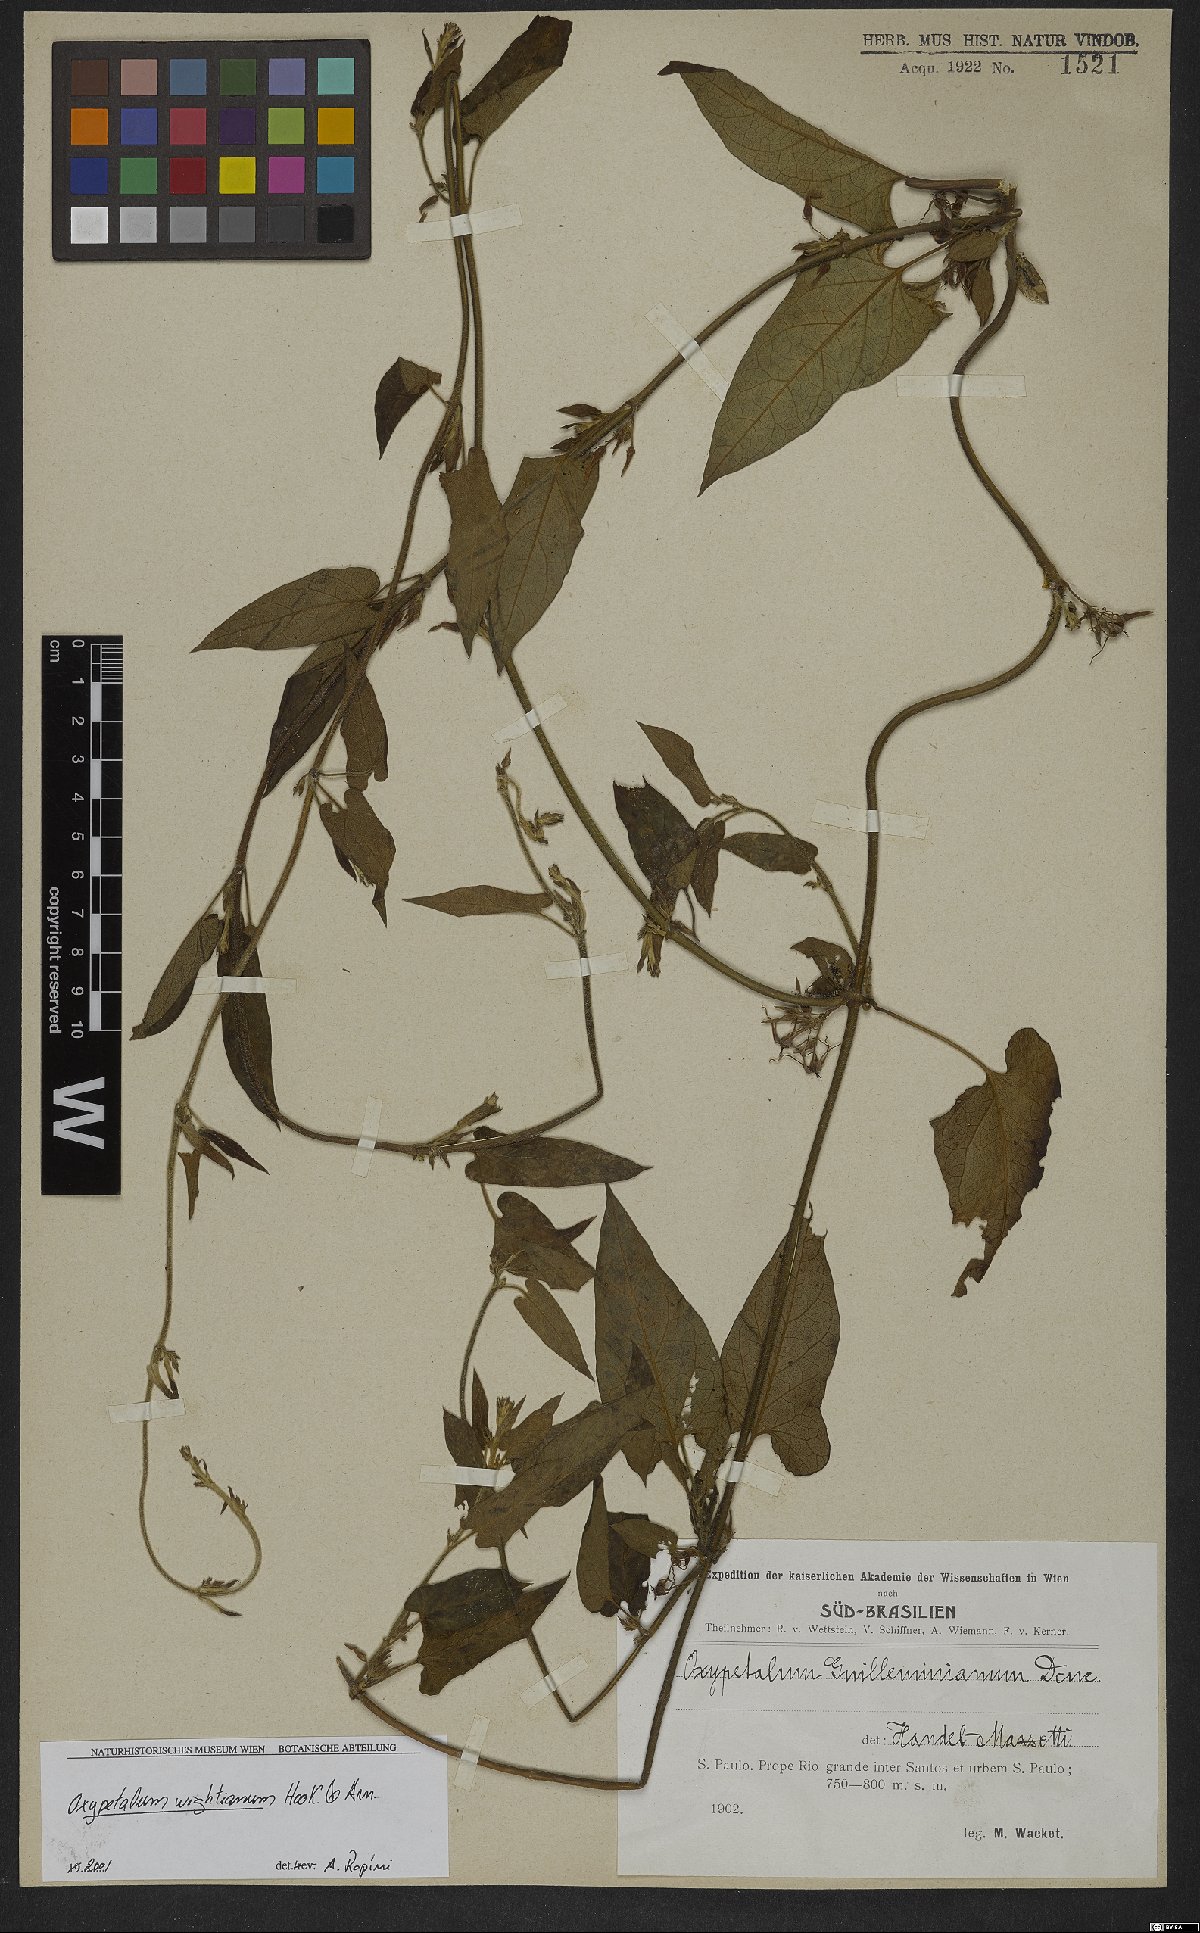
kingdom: Plantae
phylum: Tracheophyta
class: Magnoliopsida
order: Gentianales
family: Apocynaceae
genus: Oxypetalum
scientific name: Oxypetalum wightianum
